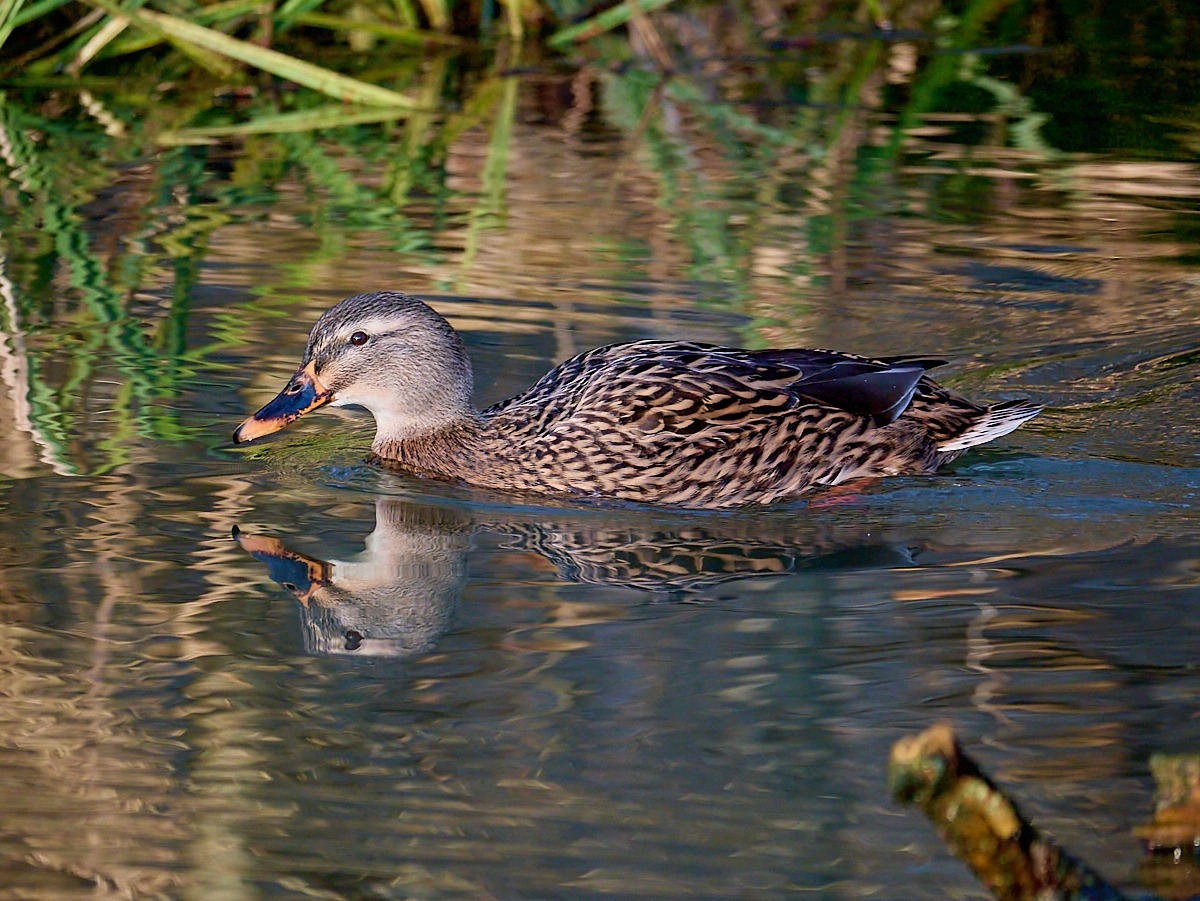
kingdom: Animalia
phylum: Chordata
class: Aves
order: Anseriformes
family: Anatidae
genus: Anas
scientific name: Anas platyrhynchos
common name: Gråand
